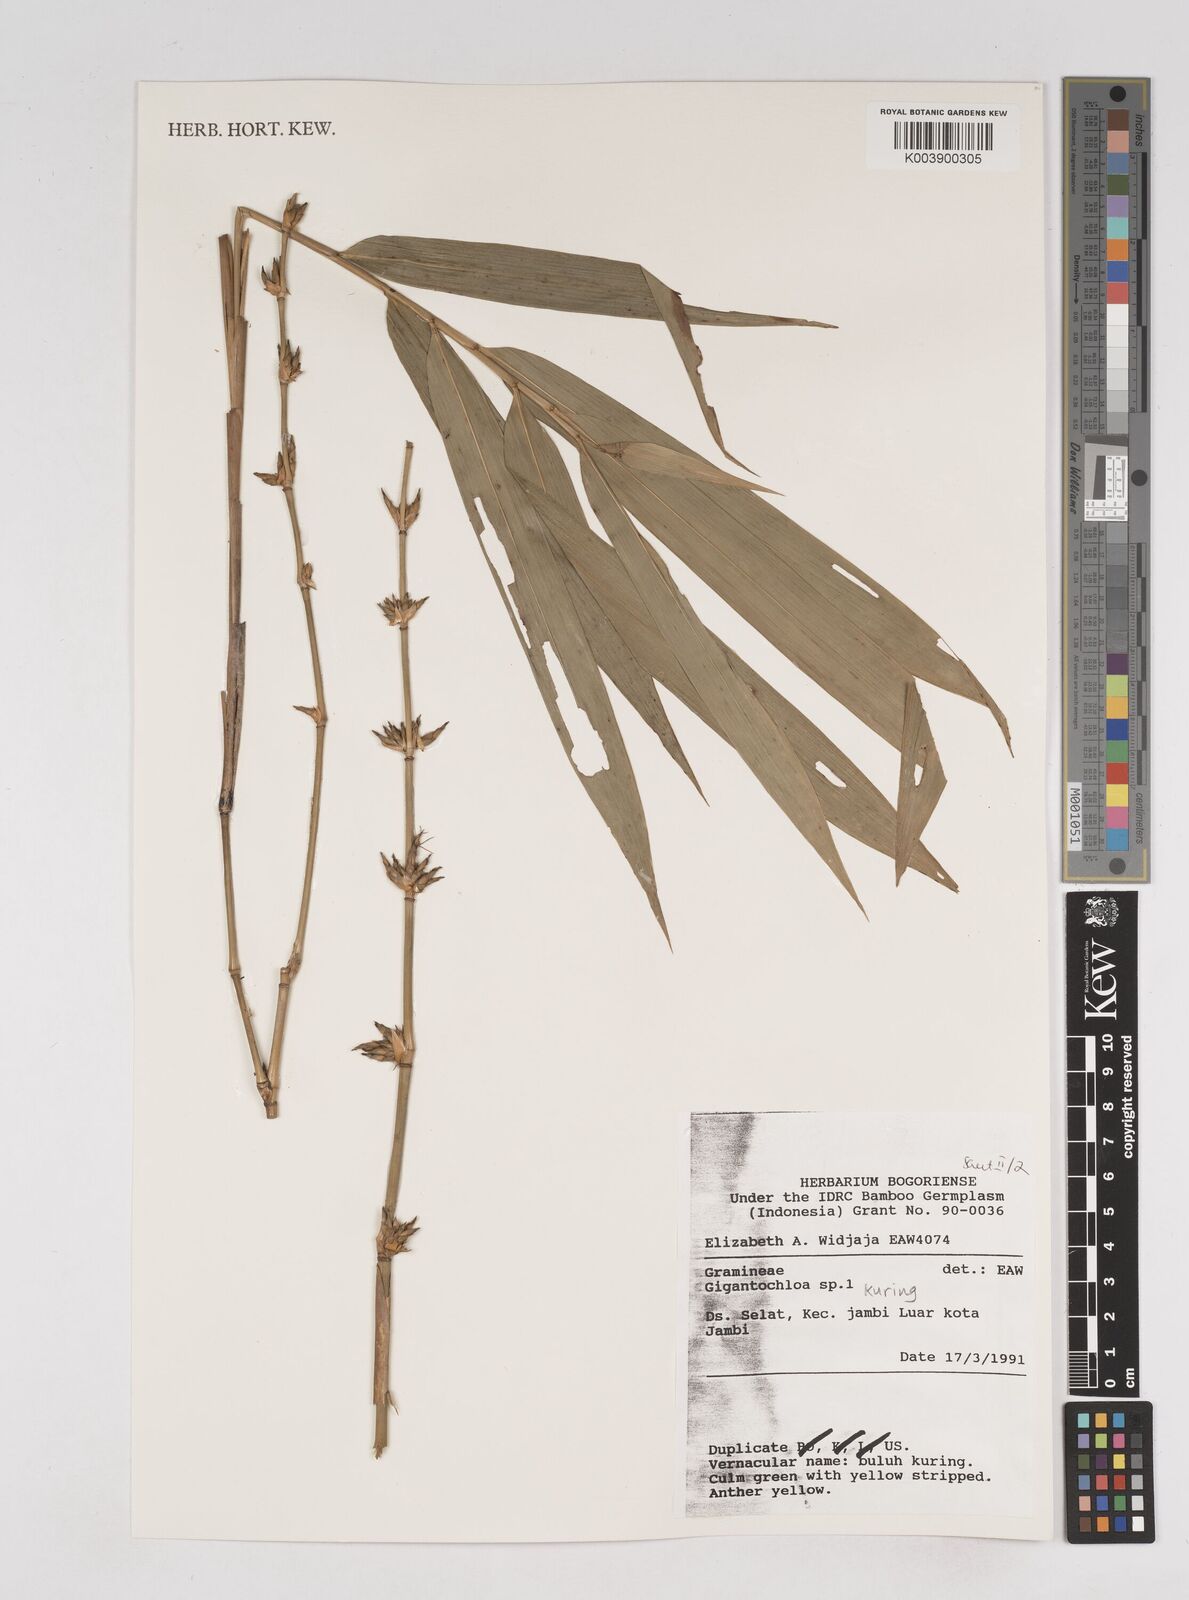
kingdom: Plantae
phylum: Tracheophyta
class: Liliopsida
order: Poales
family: Poaceae
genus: Gigantochloa
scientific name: Gigantochloa kuring
